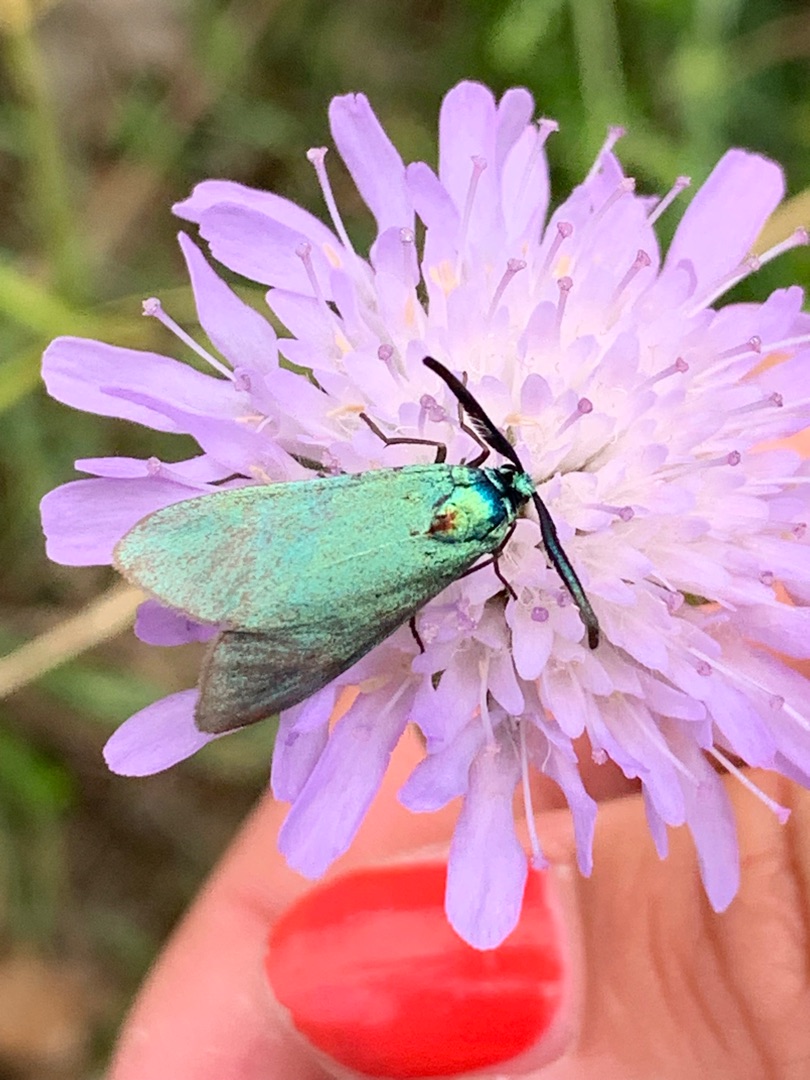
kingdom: Animalia
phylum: Arthropoda
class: Insecta
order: Lepidoptera
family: Zygaenidae
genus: Adscita
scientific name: Adscita statices
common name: Metalvinge
